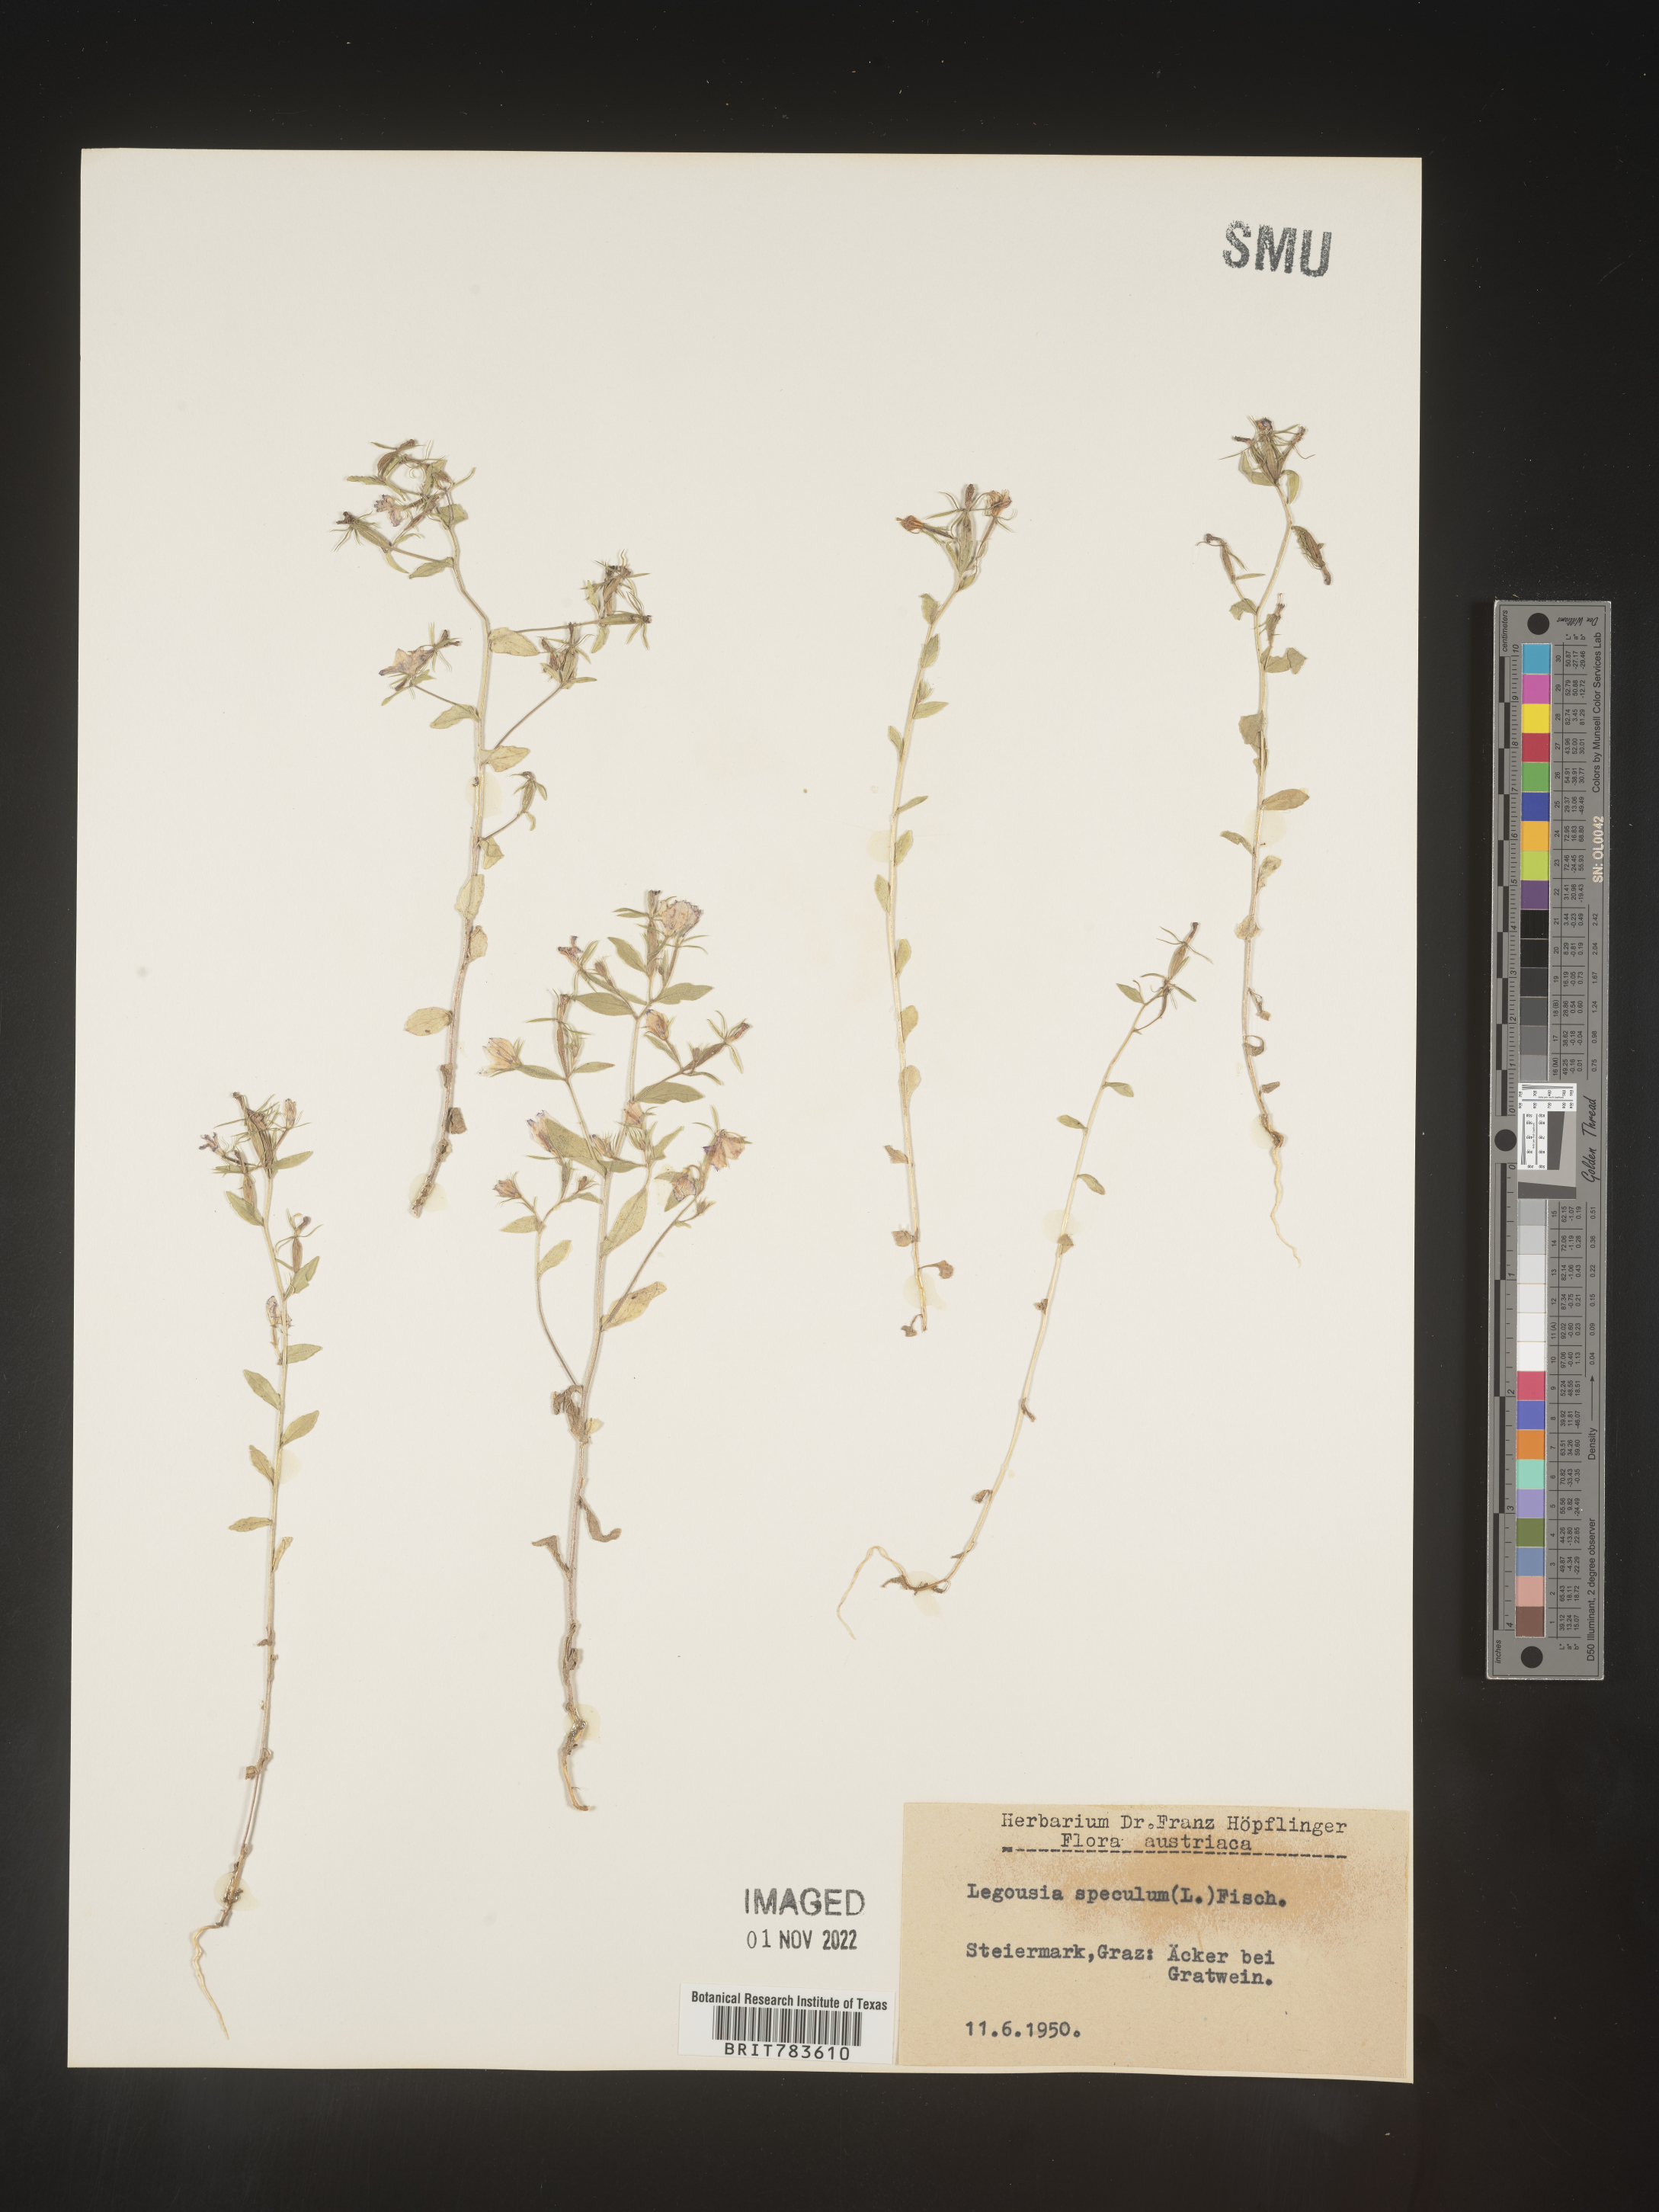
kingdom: Plantae
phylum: Tracheophyta
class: Magnoliopsida
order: Asterales
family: Campanulaceae
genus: Specularia
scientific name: Specularia
